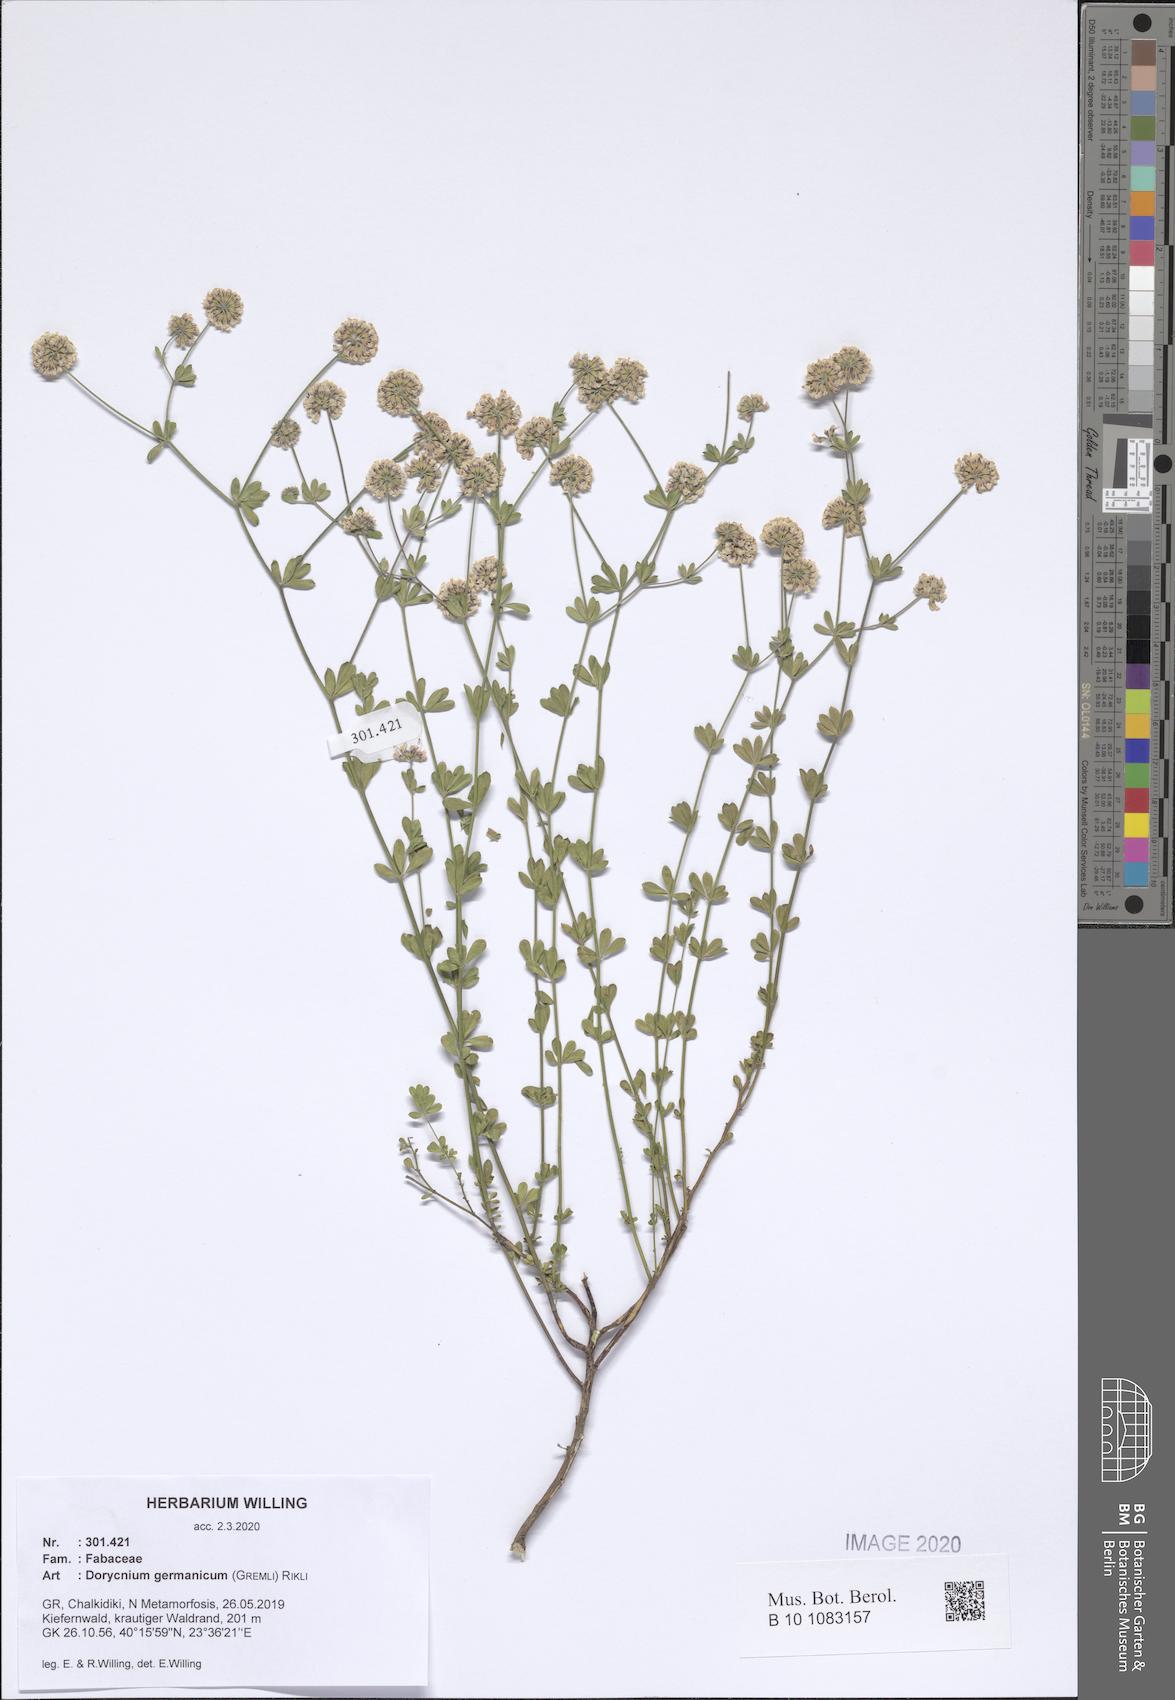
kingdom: Plantae
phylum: Tracheophyta
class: Magnoliopsida
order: Fabales
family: Fabaceae
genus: Lotus
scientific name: Lotus germanicus
